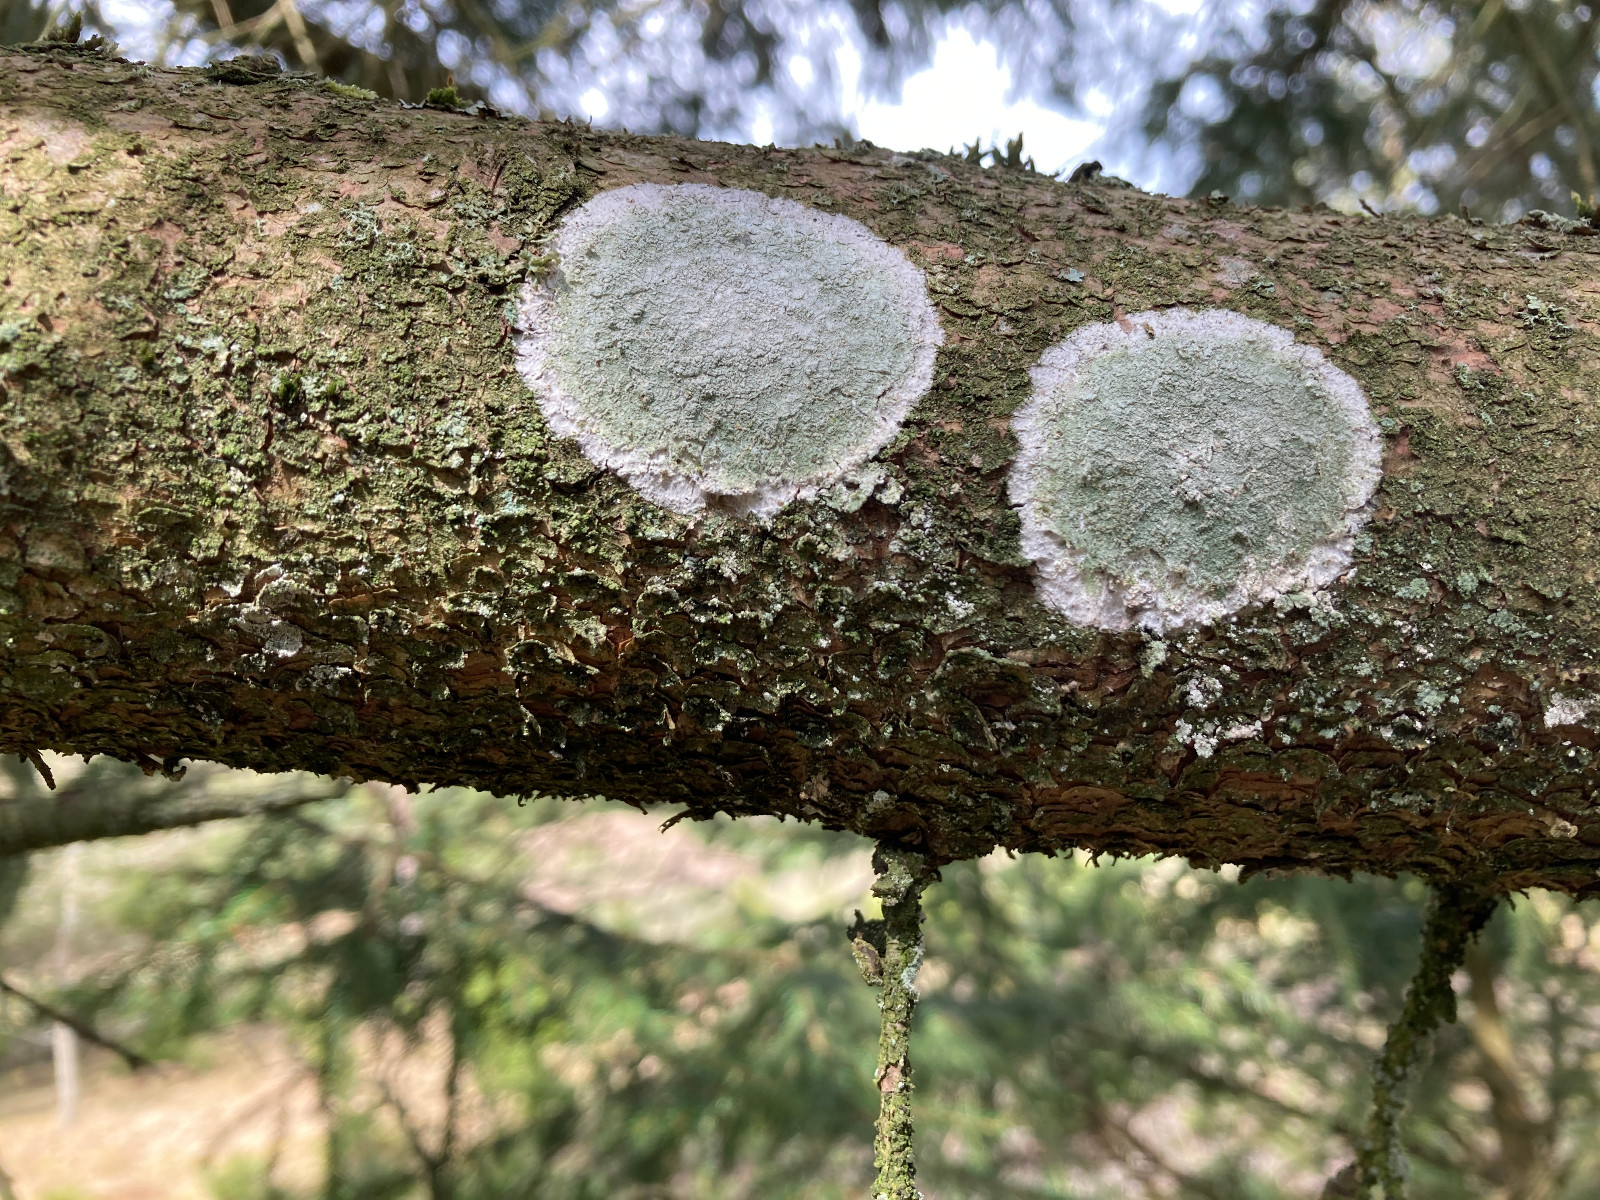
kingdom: Fungi
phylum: Ascomycota
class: Lecanoromycetes
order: Ostropales
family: Phlyctidaceae
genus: Phlyctis
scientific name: Phlyctis argena
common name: almindelig sølvlav
